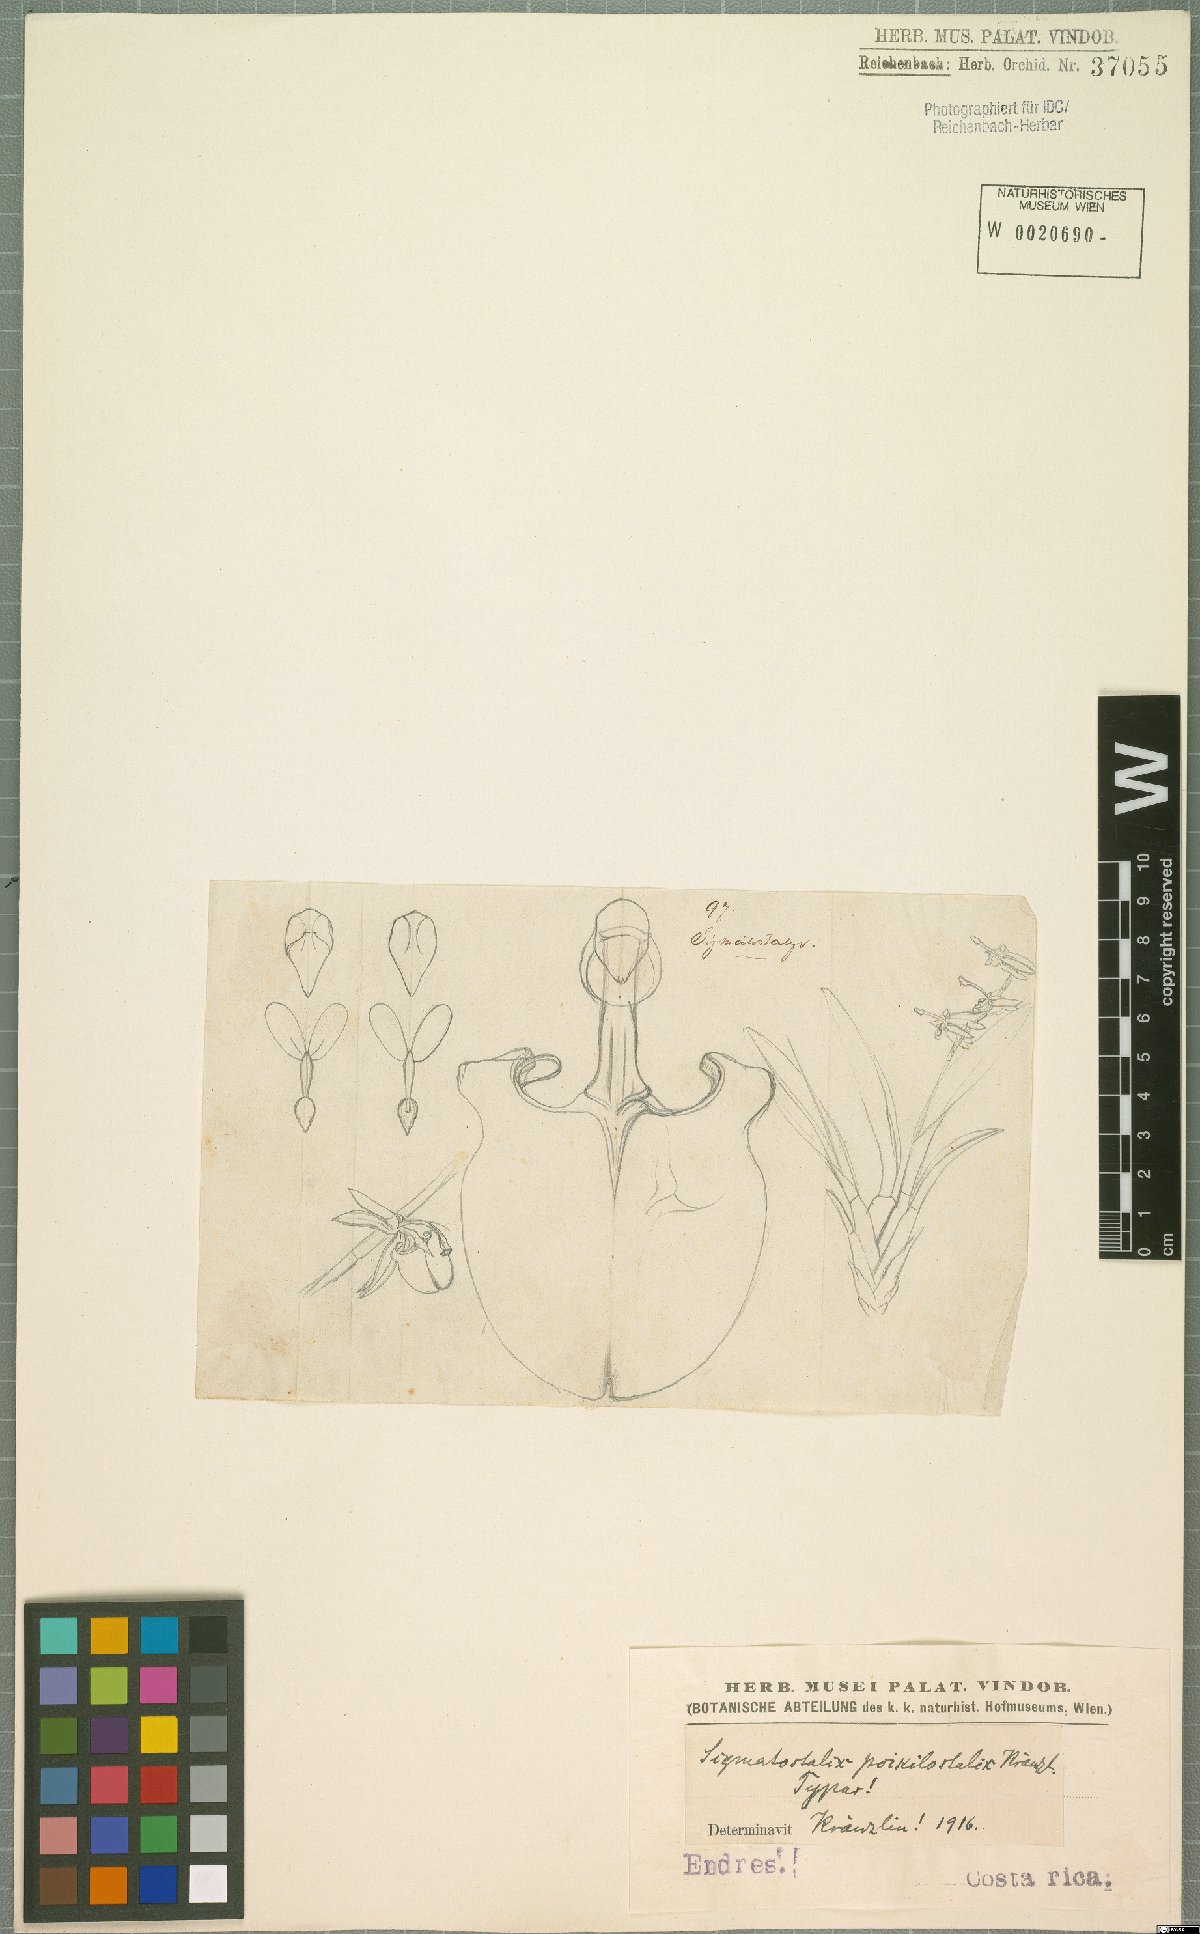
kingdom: Plantae
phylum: Tracheophyta
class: Liliopsida
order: Asparagales
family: Orchidaceae
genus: Oncidium
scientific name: Oncidium poikilostalix
